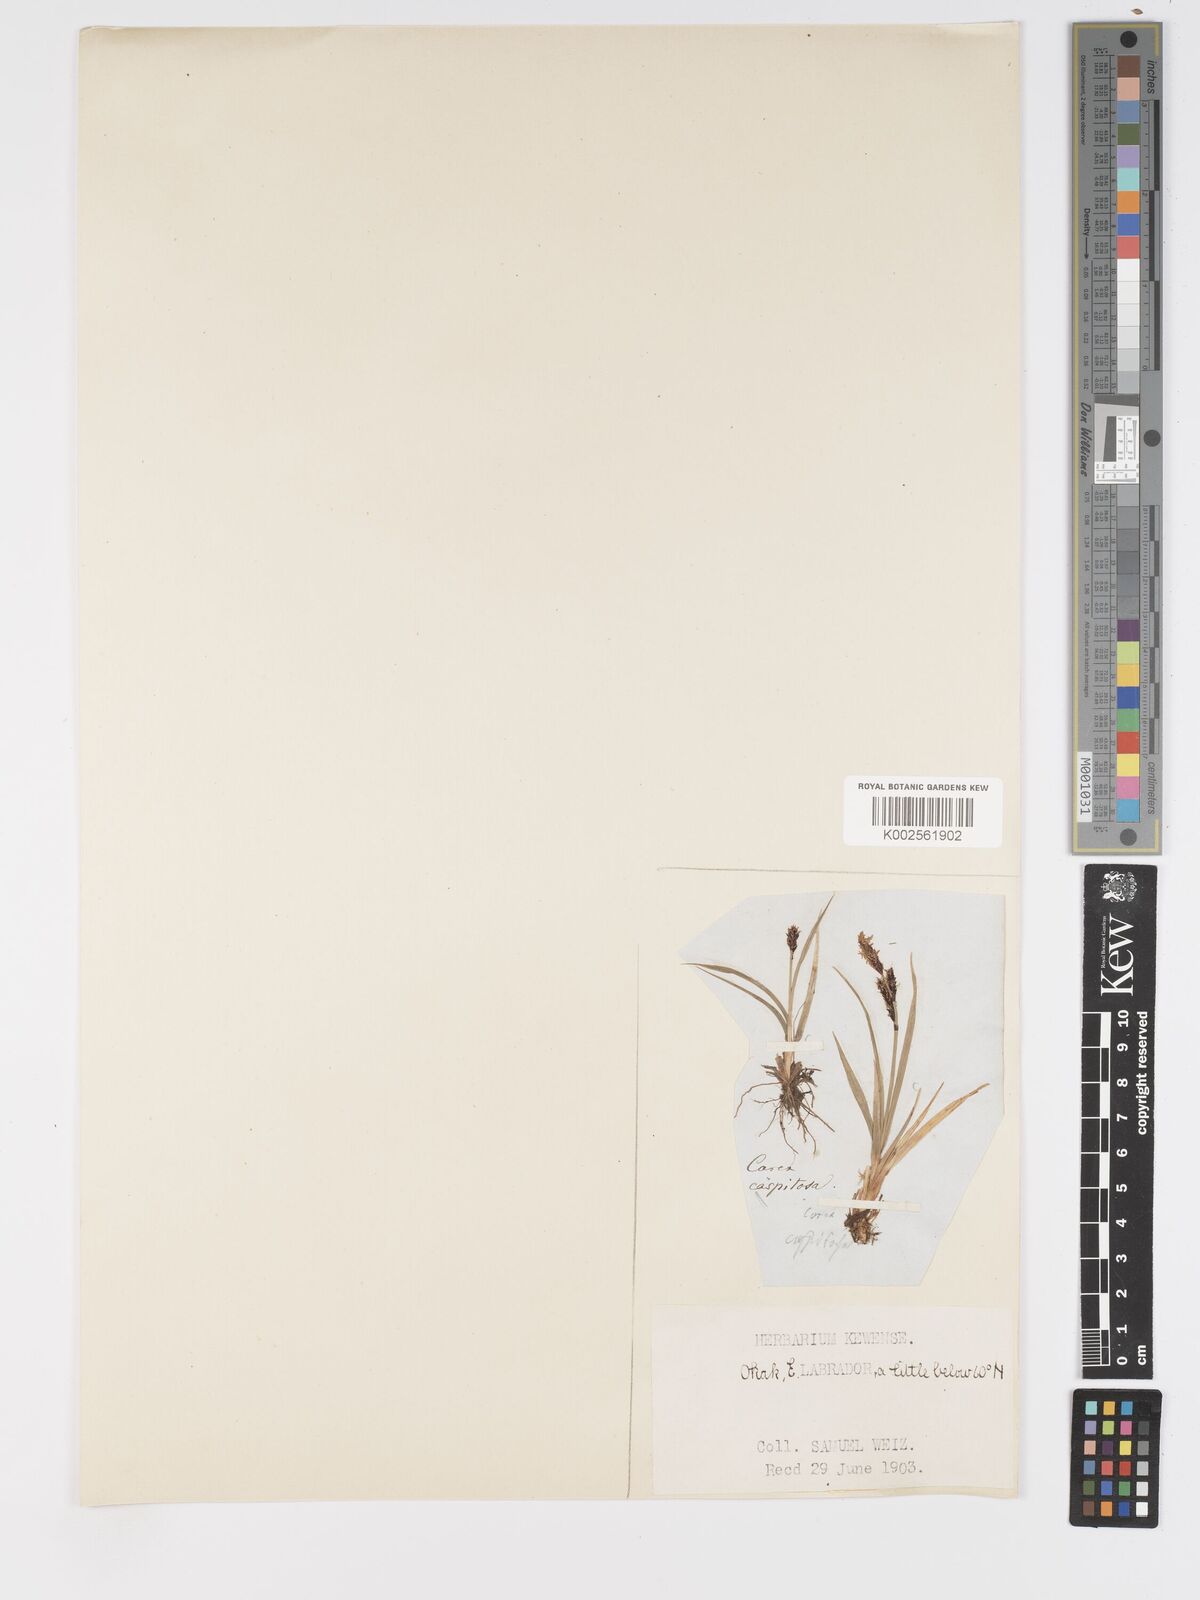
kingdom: Plantae
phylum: Tracheophyta
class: Liliopsida
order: Poales
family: Cyperaceae
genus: Carex
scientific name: Carex bigelowii
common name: Stiff sedge
